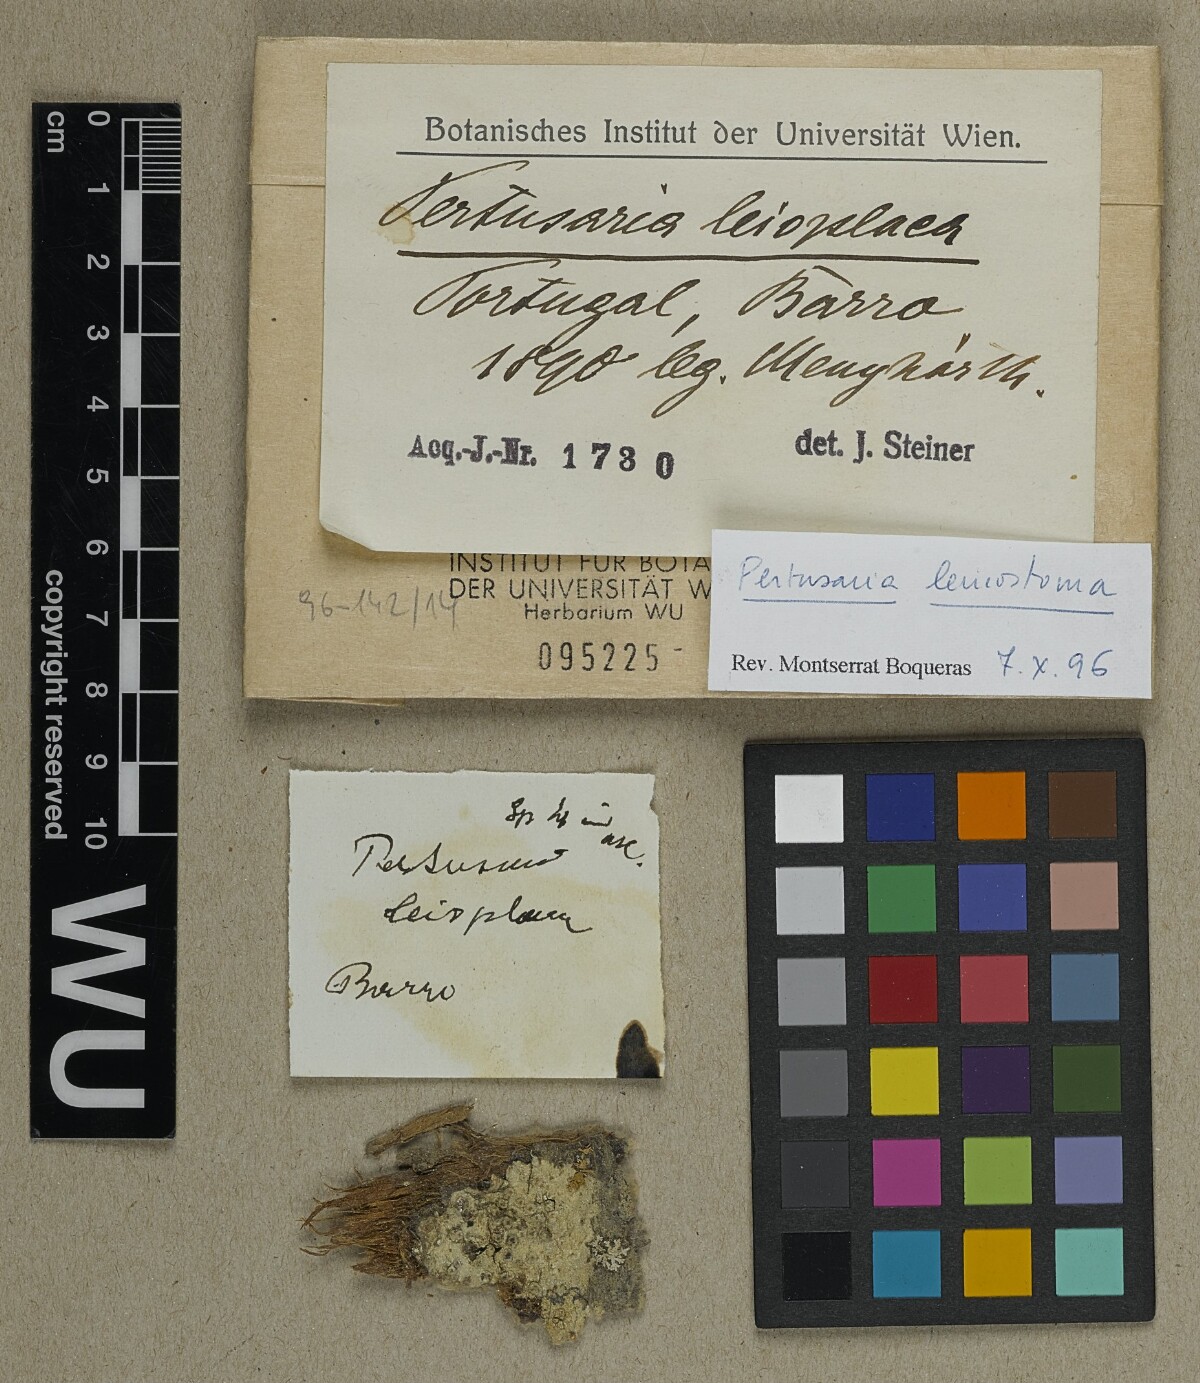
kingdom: Fungi
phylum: Ascomycota
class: Lecanoromycetes
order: Pertusariales
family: Pertusariaceae
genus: Pertusaria
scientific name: Pertusaria leioplaca
